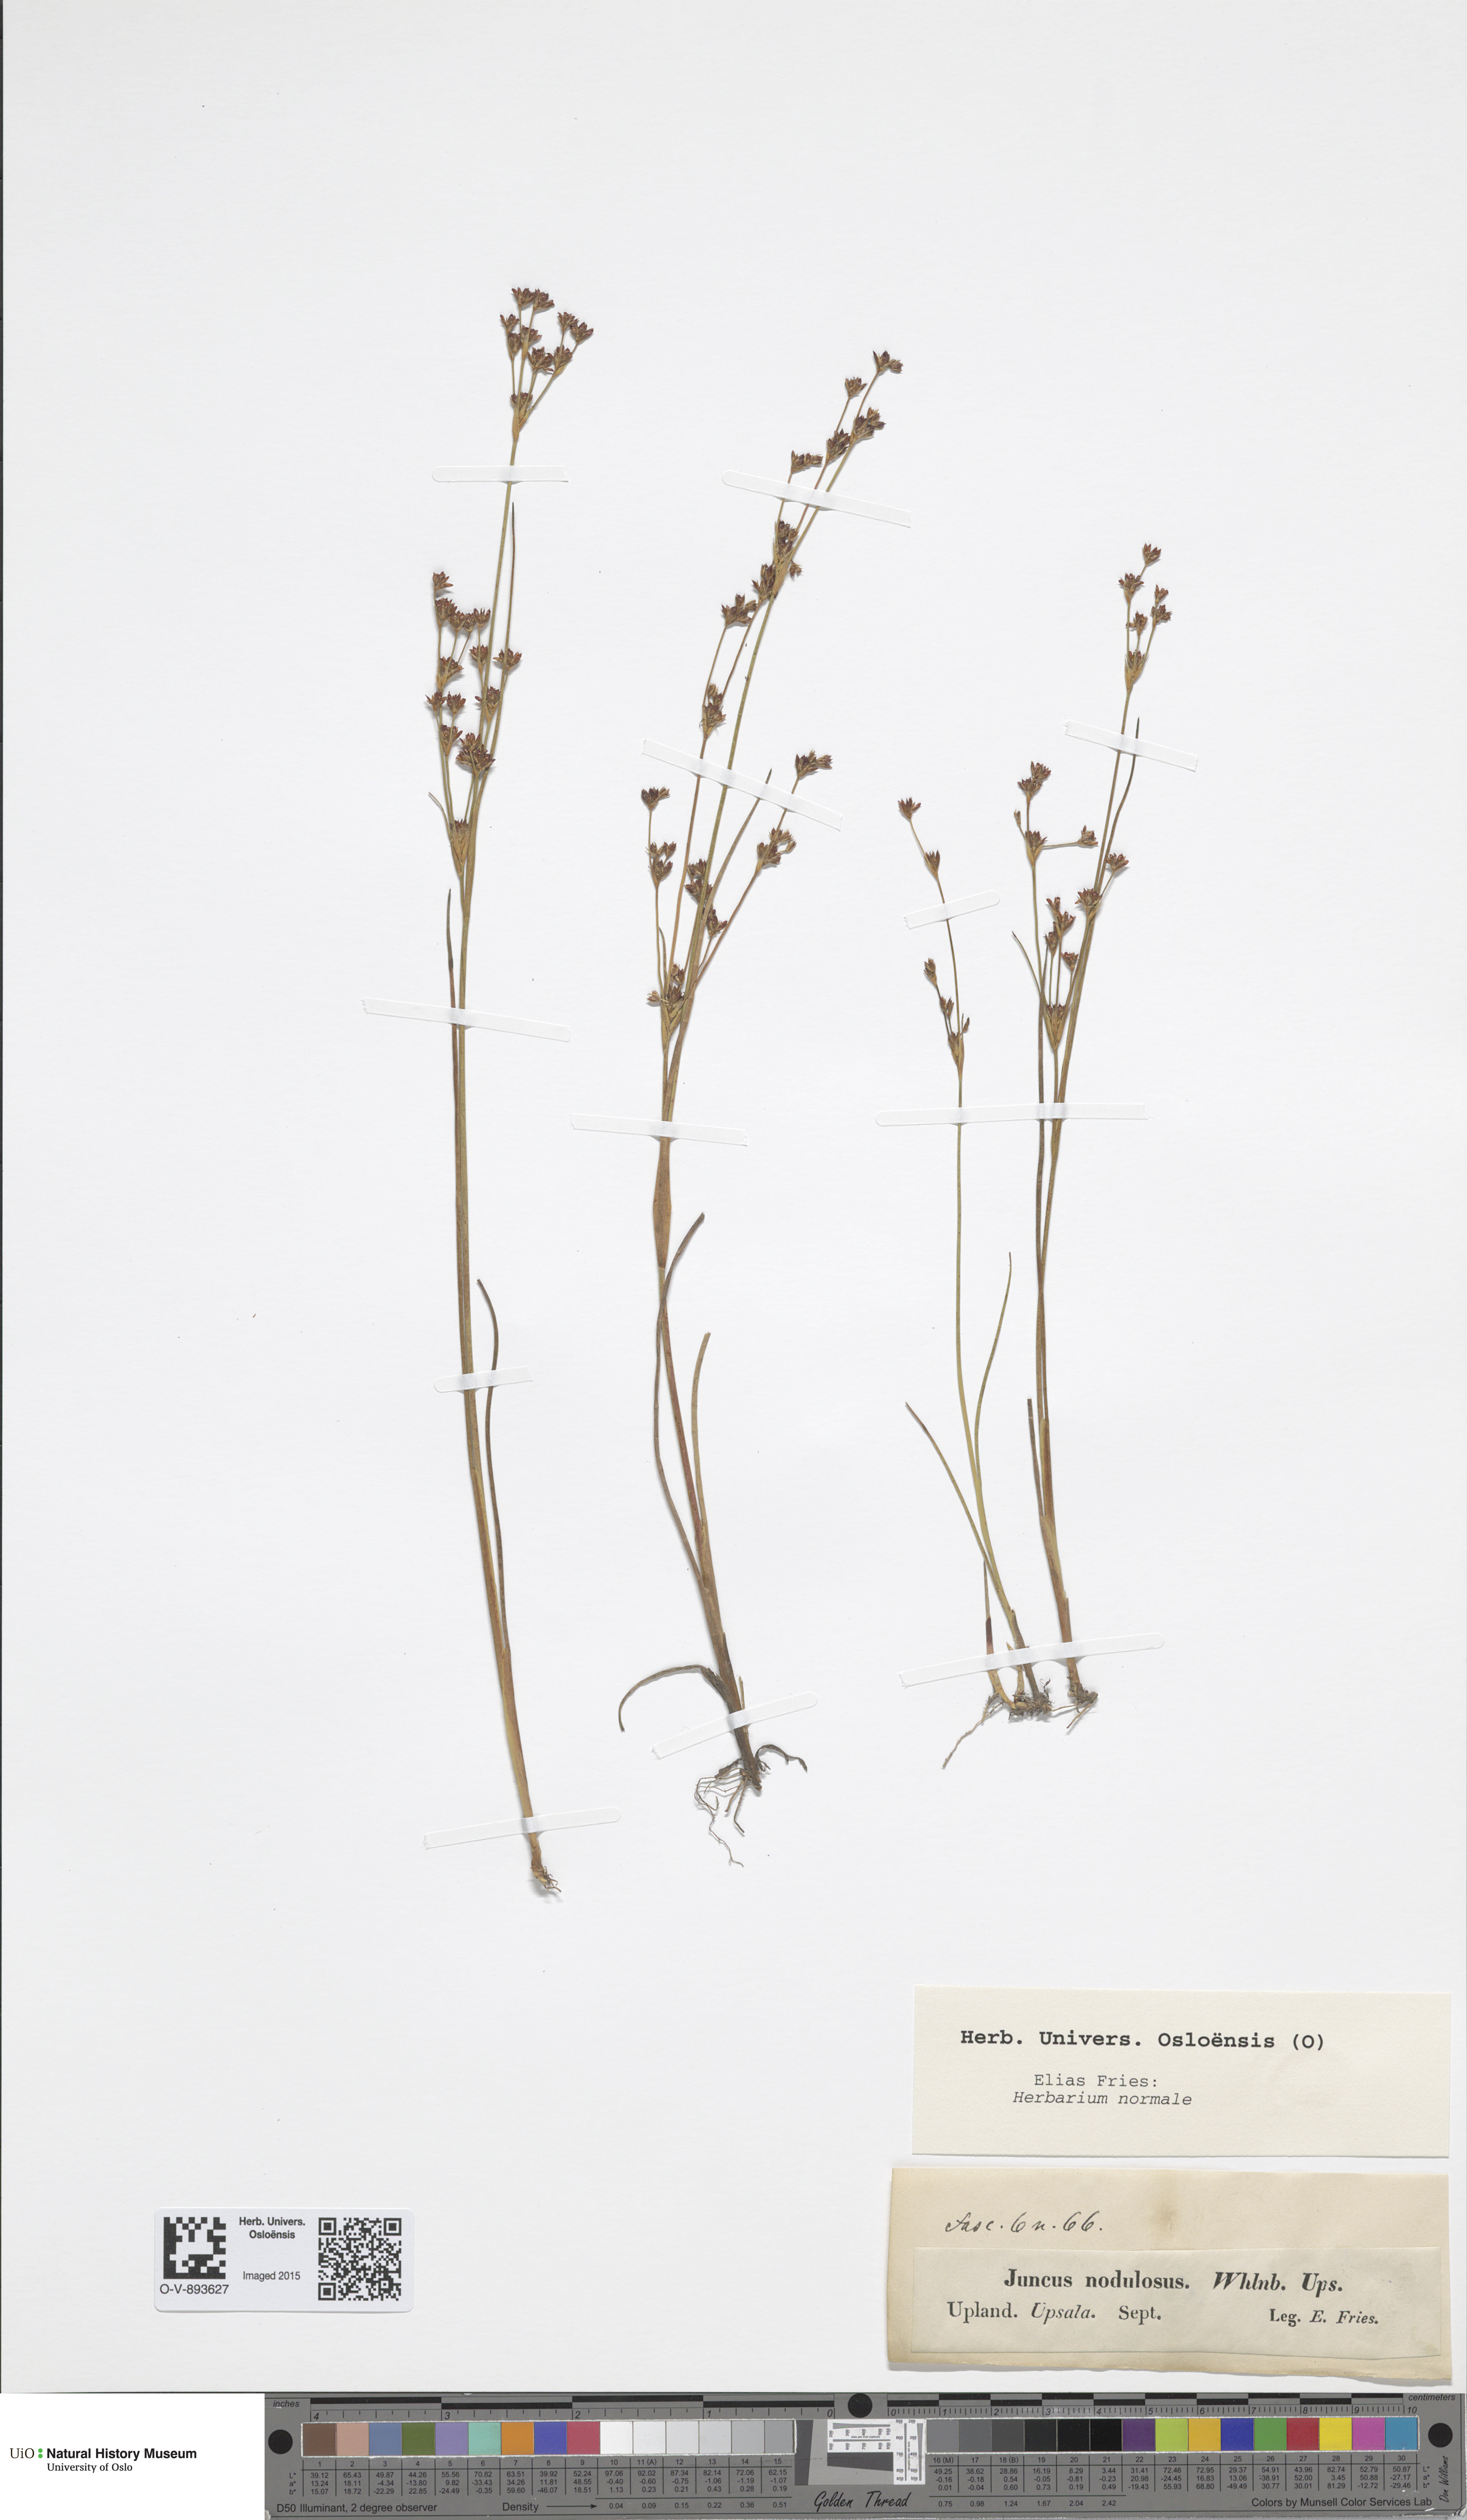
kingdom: Plantae
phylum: Tracheophyta
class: Liliopsida
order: Poales
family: Juncaceae
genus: Juncus
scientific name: Juncus alpinoarticulatus
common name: Alpine rush
